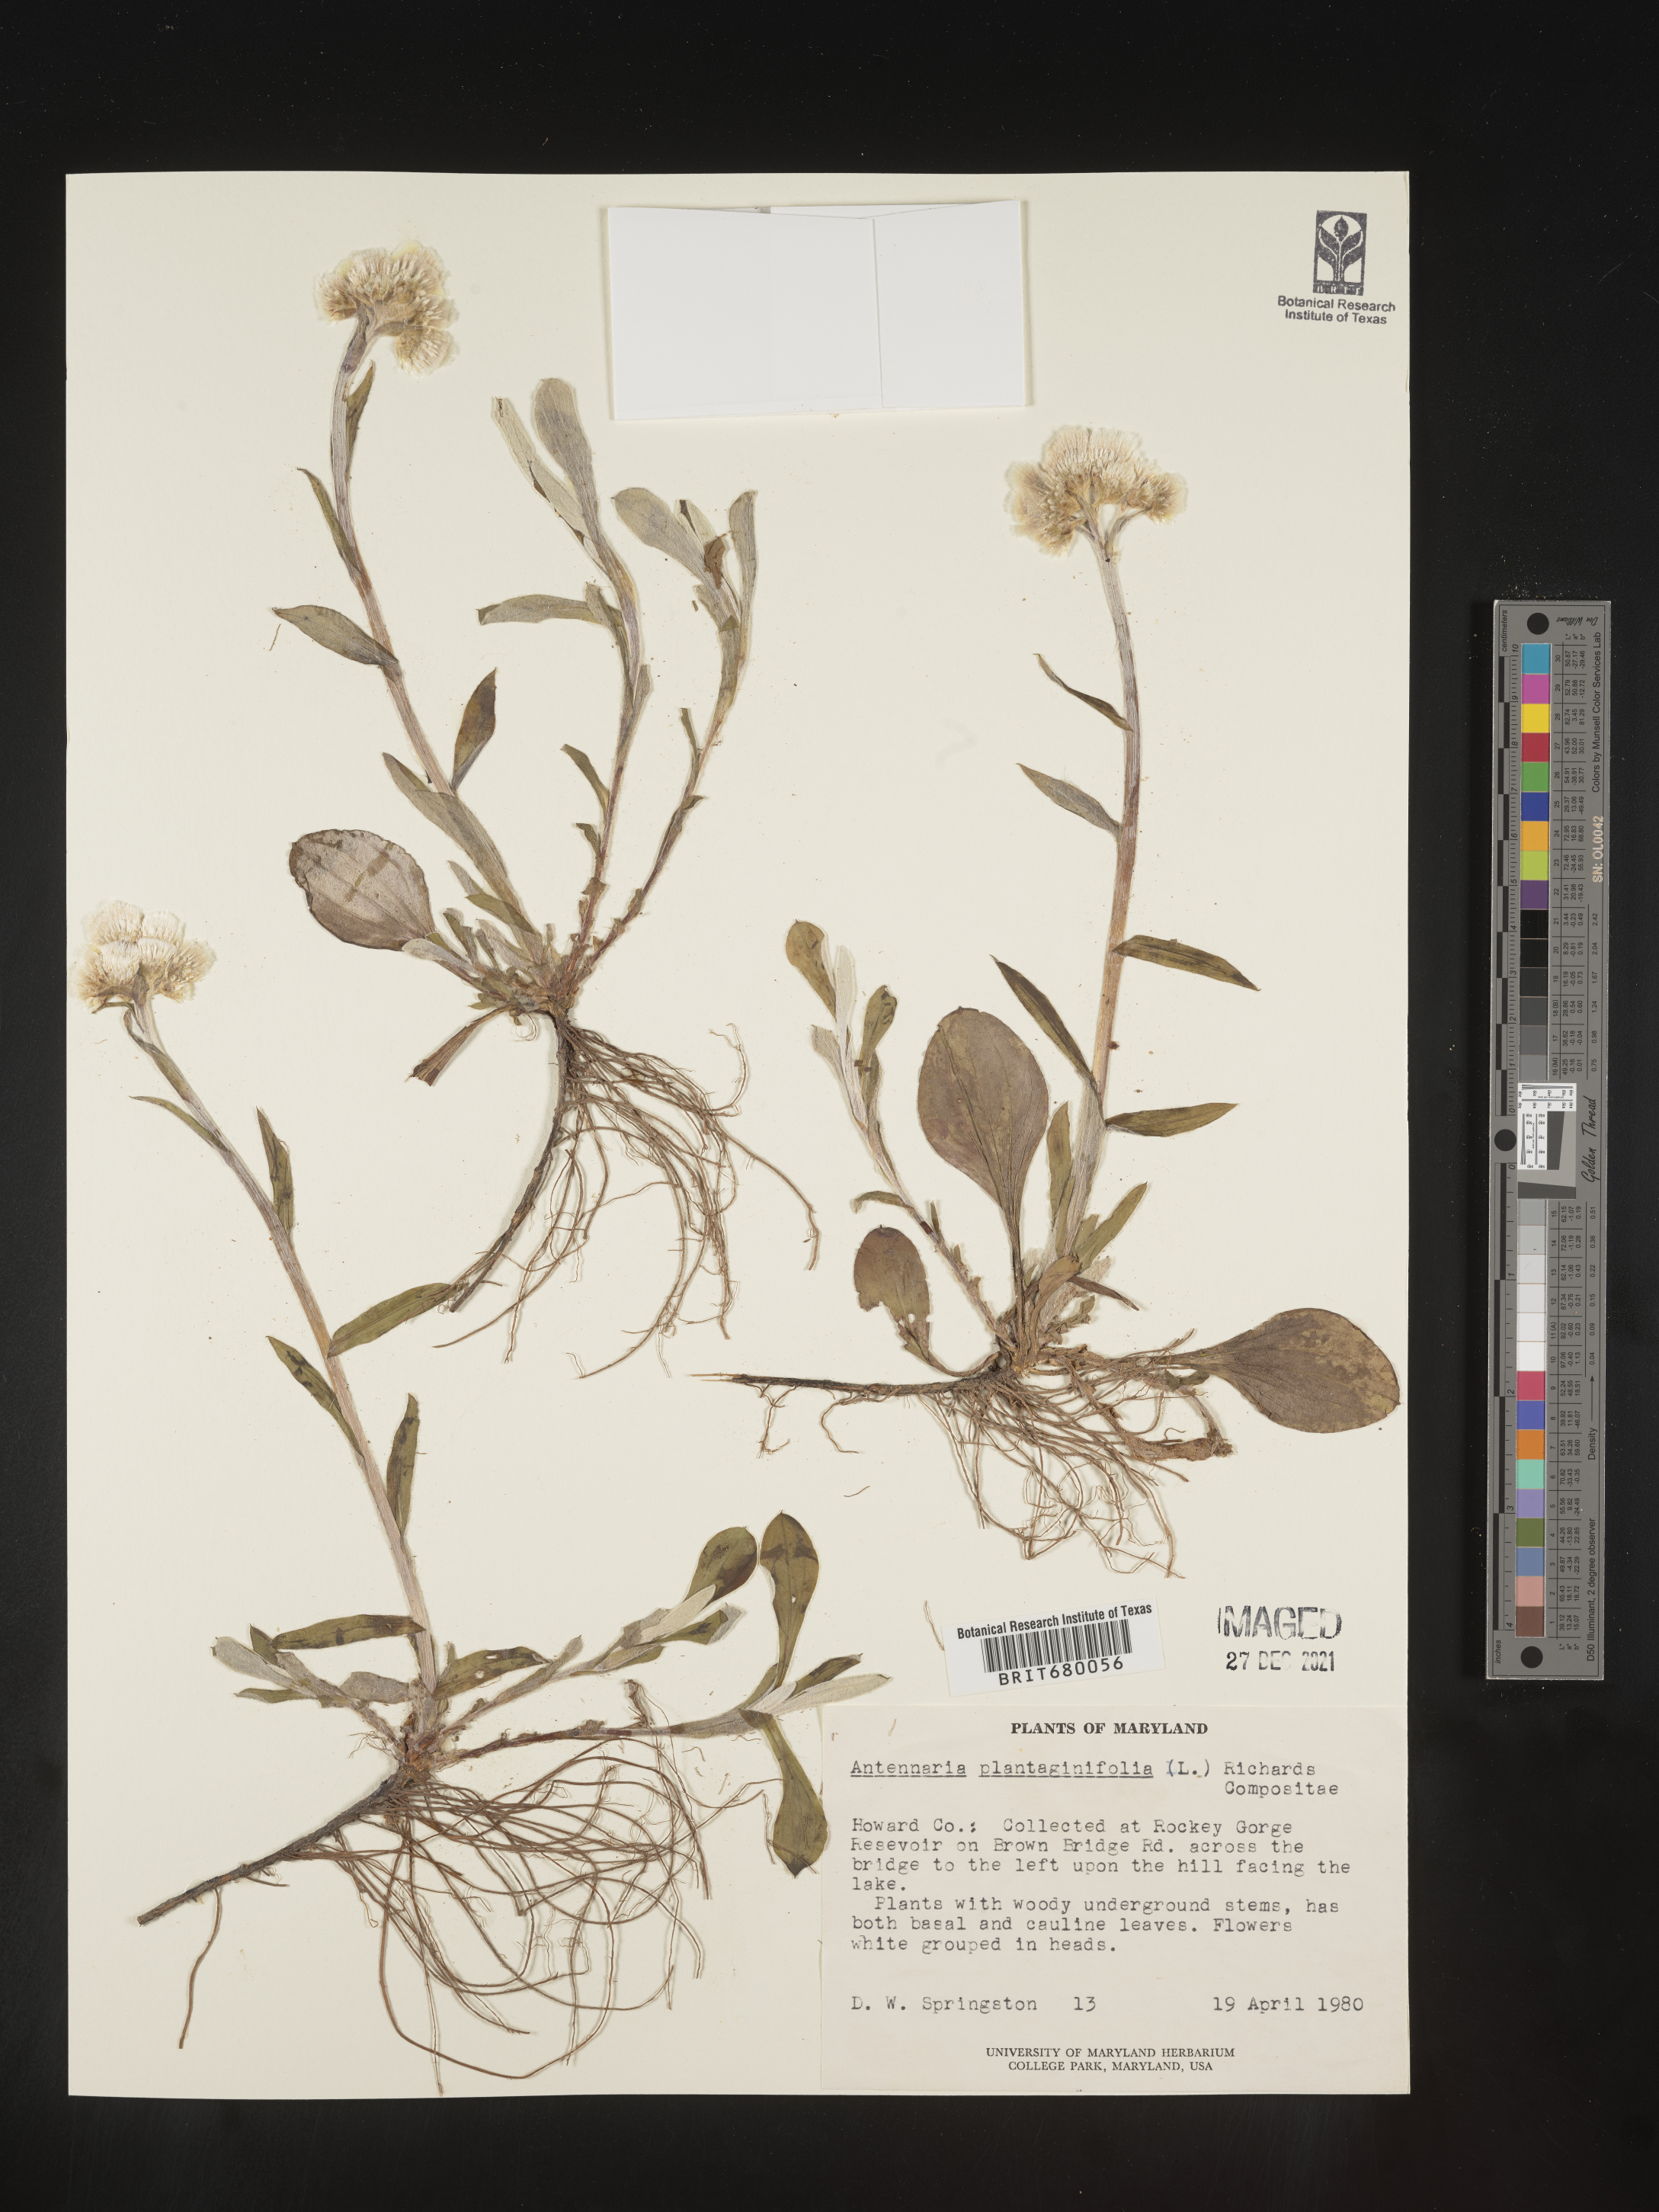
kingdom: Plantae
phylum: Tracheophyta
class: Magnoliopsida
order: Asterales
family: Asteraceae
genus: Antennaria
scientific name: Antennaria plantaginifolia
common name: Plantain-leaved pussytoes
